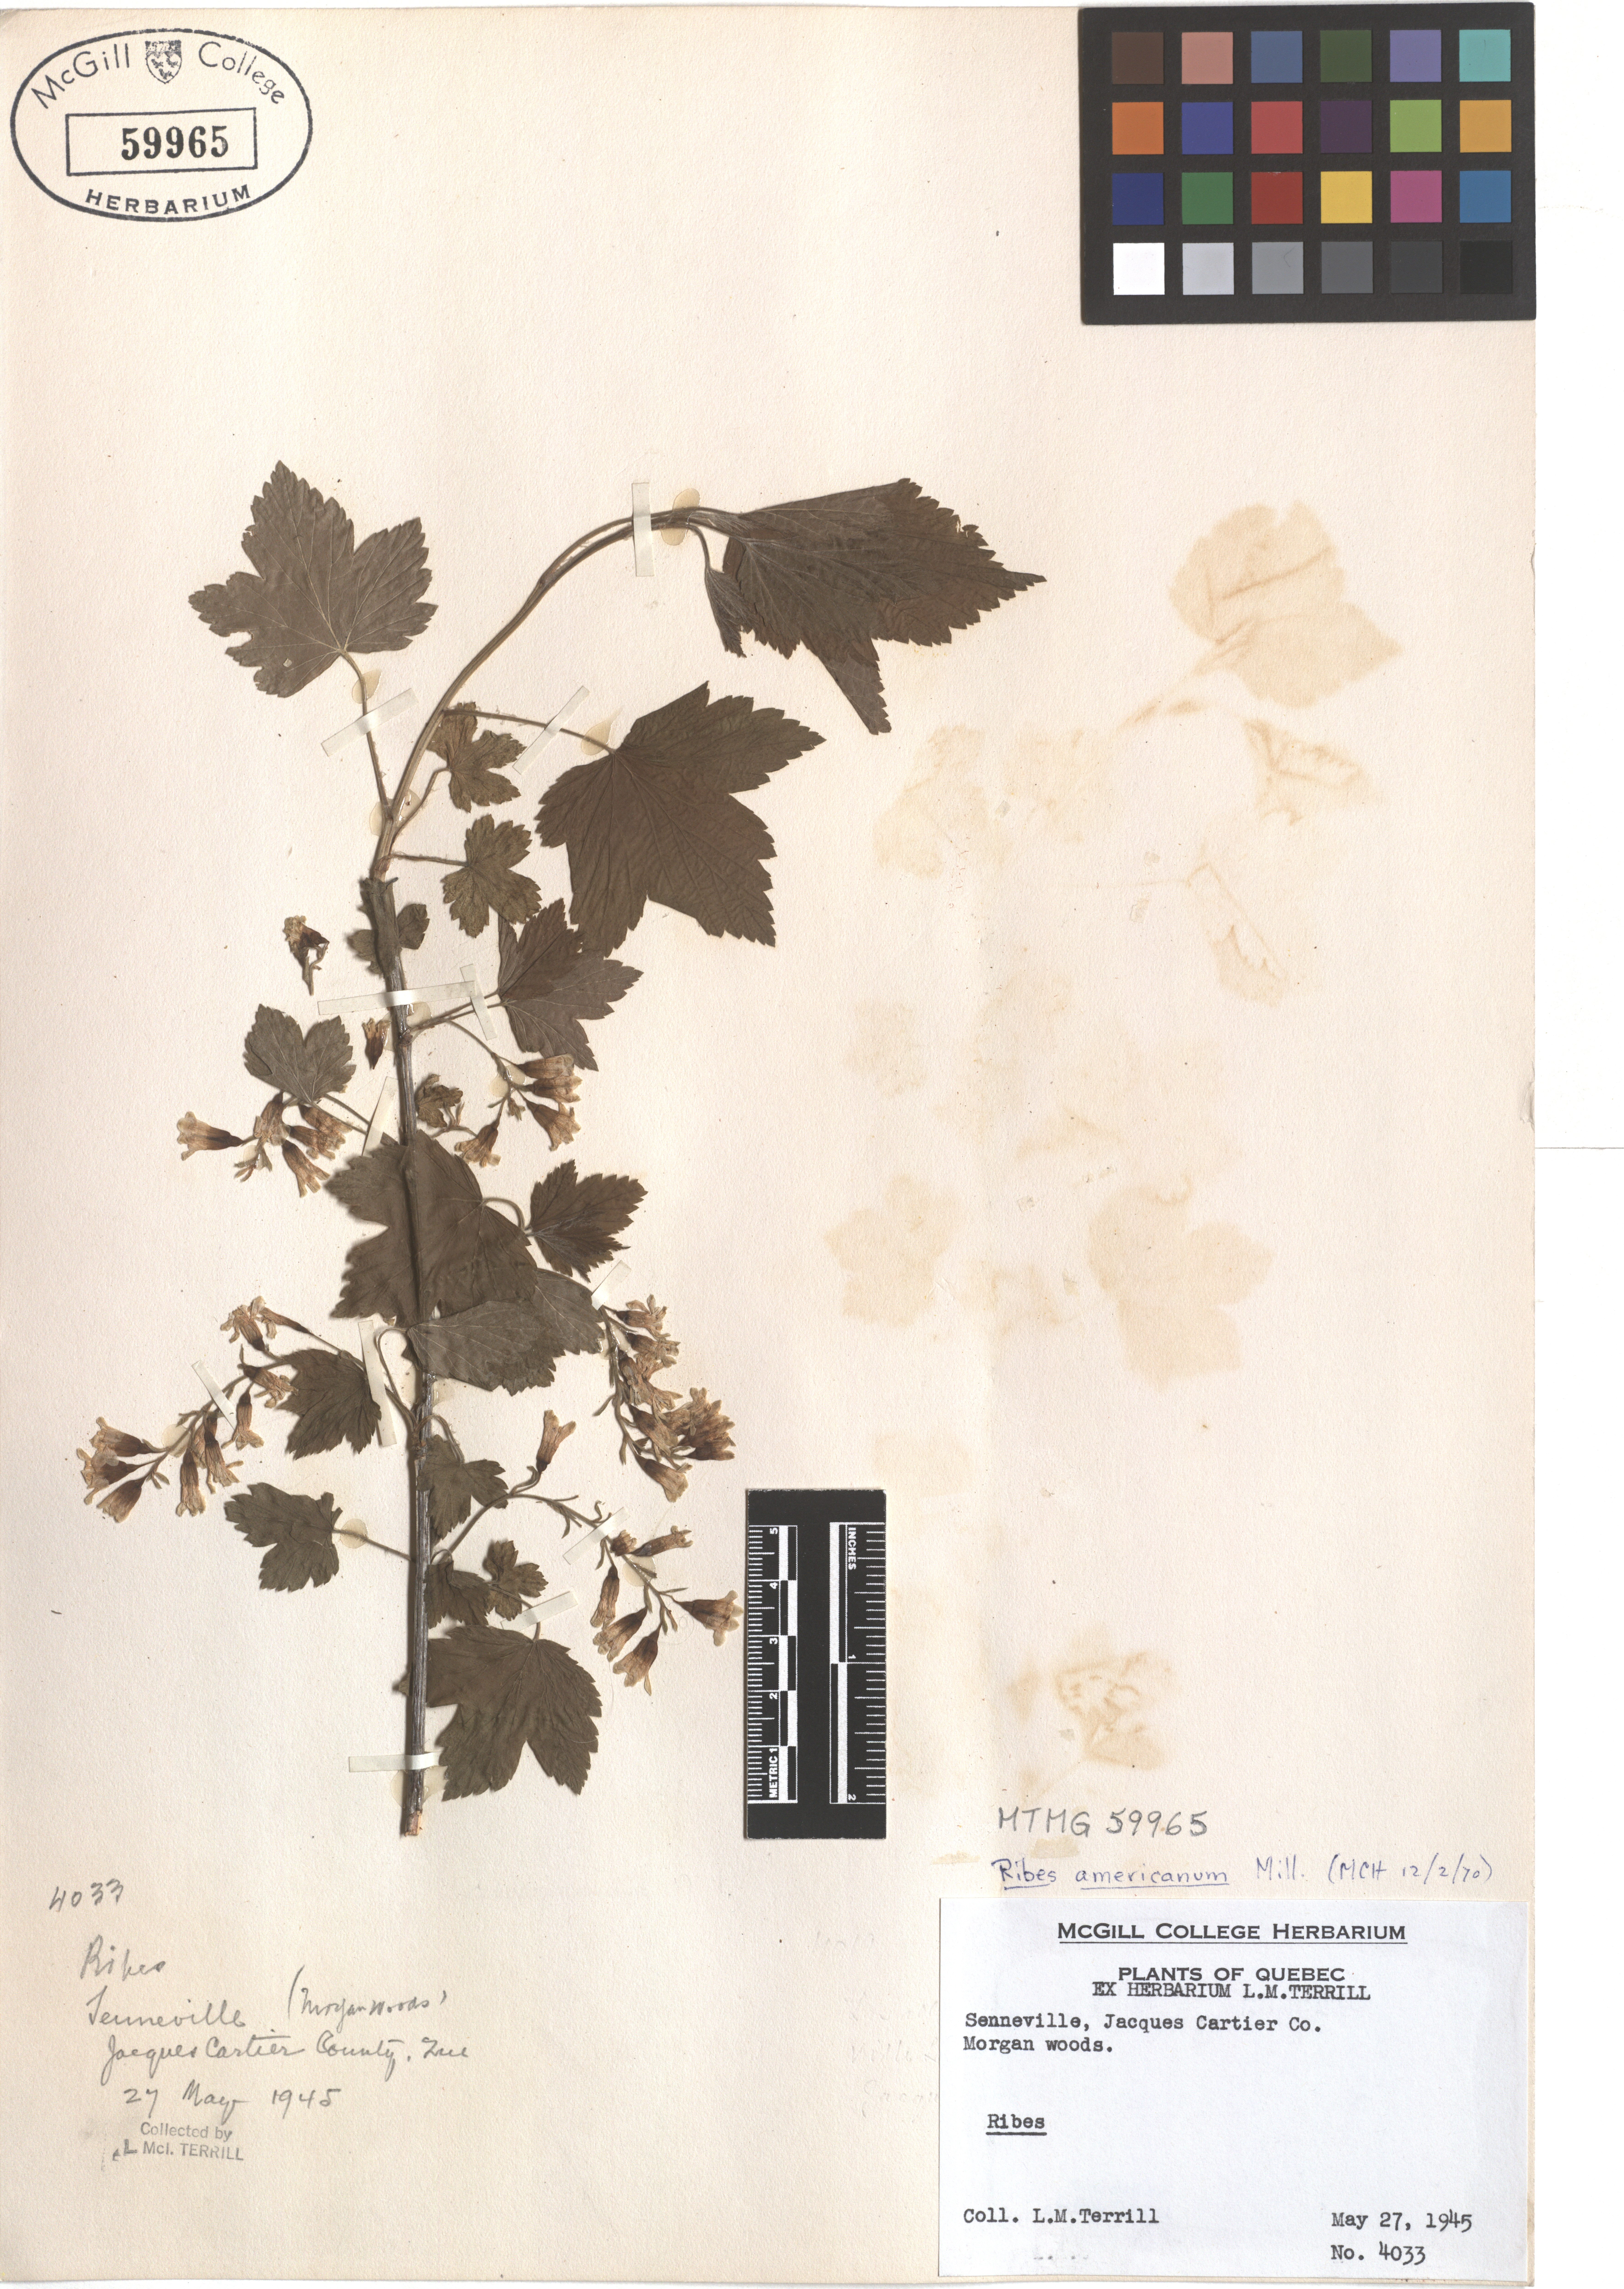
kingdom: Plantae
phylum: Tracheophyta
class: Magnoliopsida
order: Saxifragales
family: Grossulariaceae
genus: Ribes
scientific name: Ribes americanum
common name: American black currant
